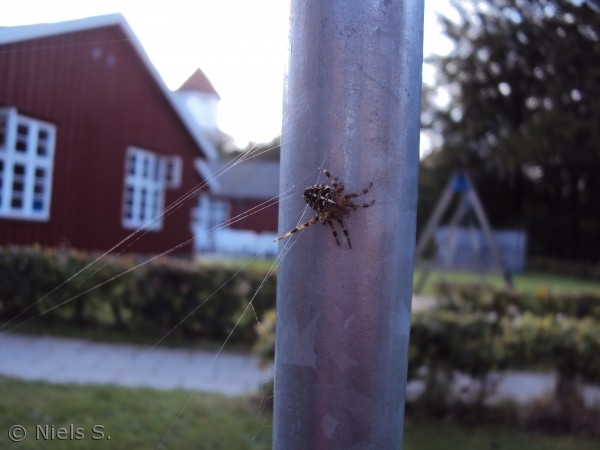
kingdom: Animalia
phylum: Arthropoda
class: Arachnida
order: Araneae
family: Araneidae
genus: Araneus
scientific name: Araneus diadematus
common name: Korsedderkop
